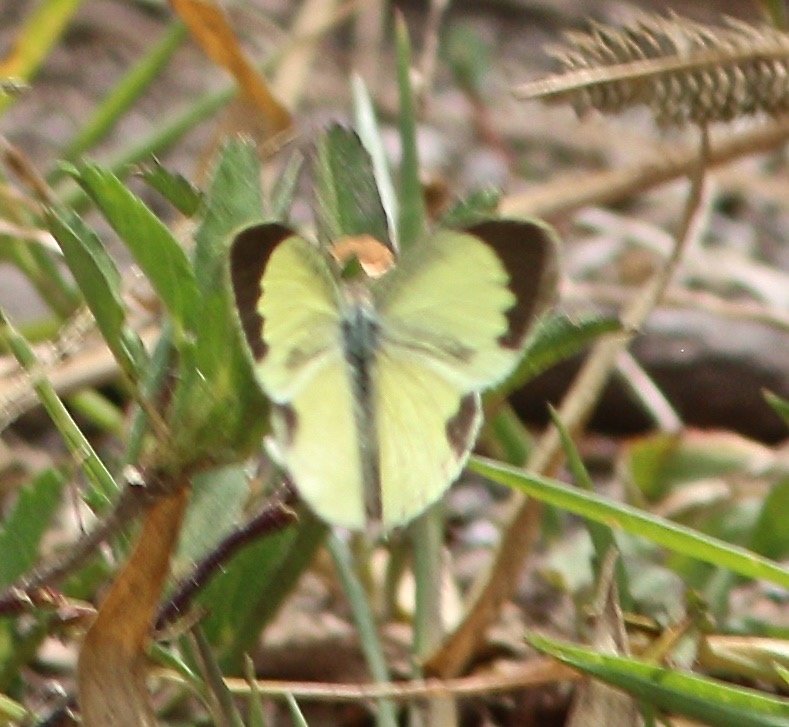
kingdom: Animalia
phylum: Arthropoda
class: Insecta
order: Lepidoptera
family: Pieridae
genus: Eurema
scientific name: Eurema daira
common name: Barred Yellow
